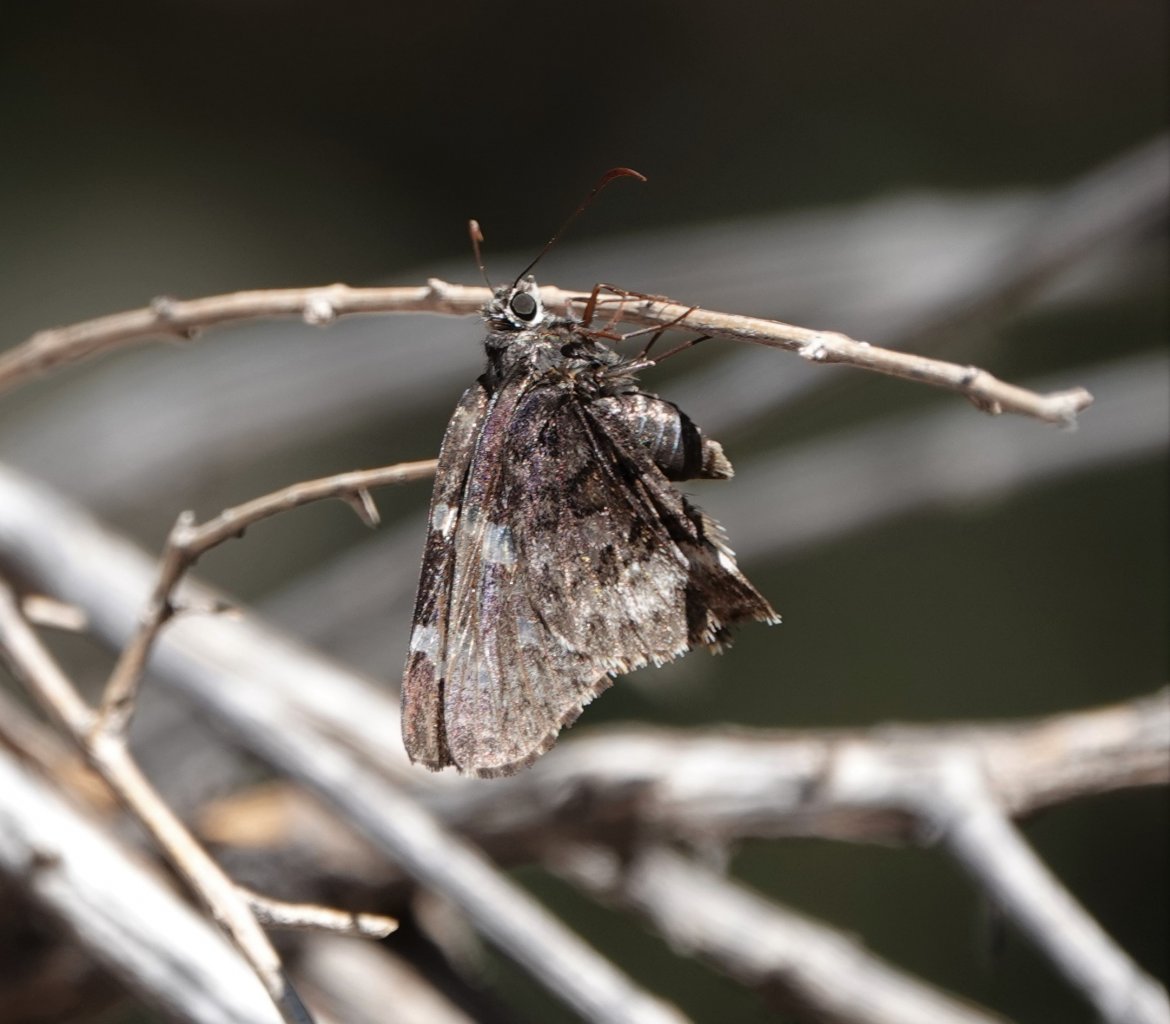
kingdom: Animalia
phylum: Arthropoda
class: Insecta
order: Lepidoptera
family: Hesperiidae
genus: Codatractus
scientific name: Codatractus arizonensis
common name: Arizona Skipper
